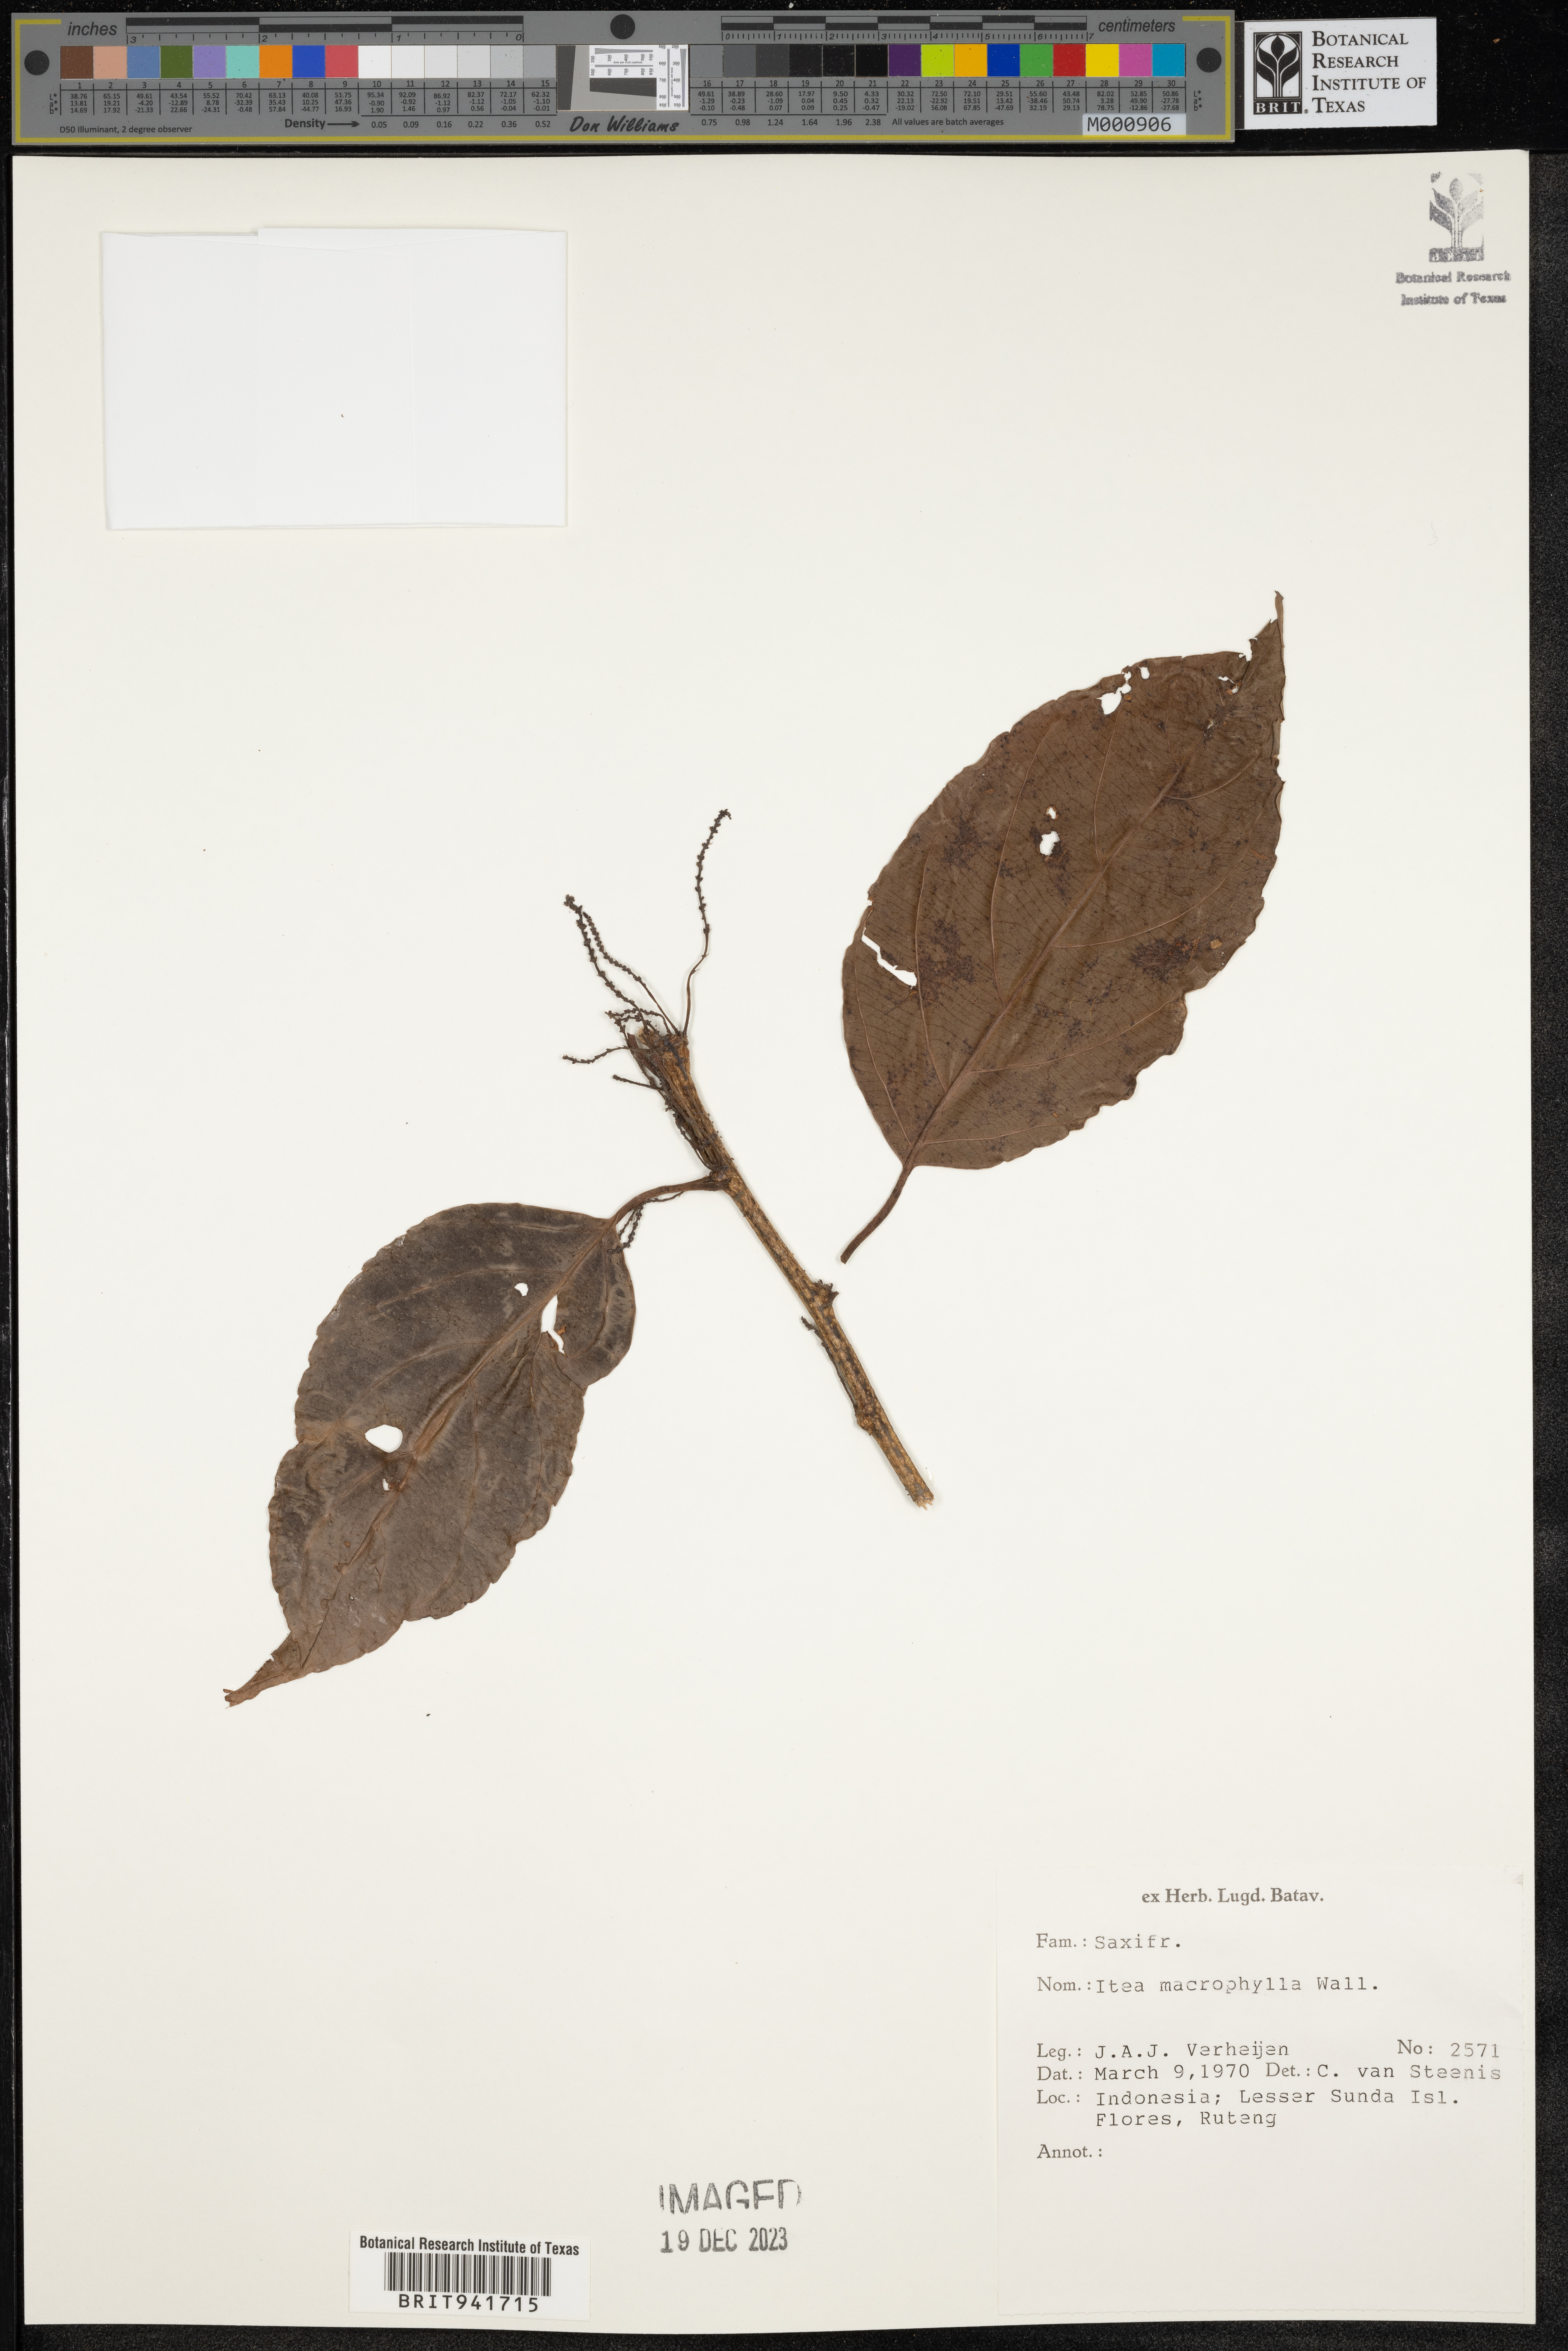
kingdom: Plantae
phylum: Tracheophyta
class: Magnoliopsida
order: Saxifragales
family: Iteaceae
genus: Itea
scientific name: Itea
